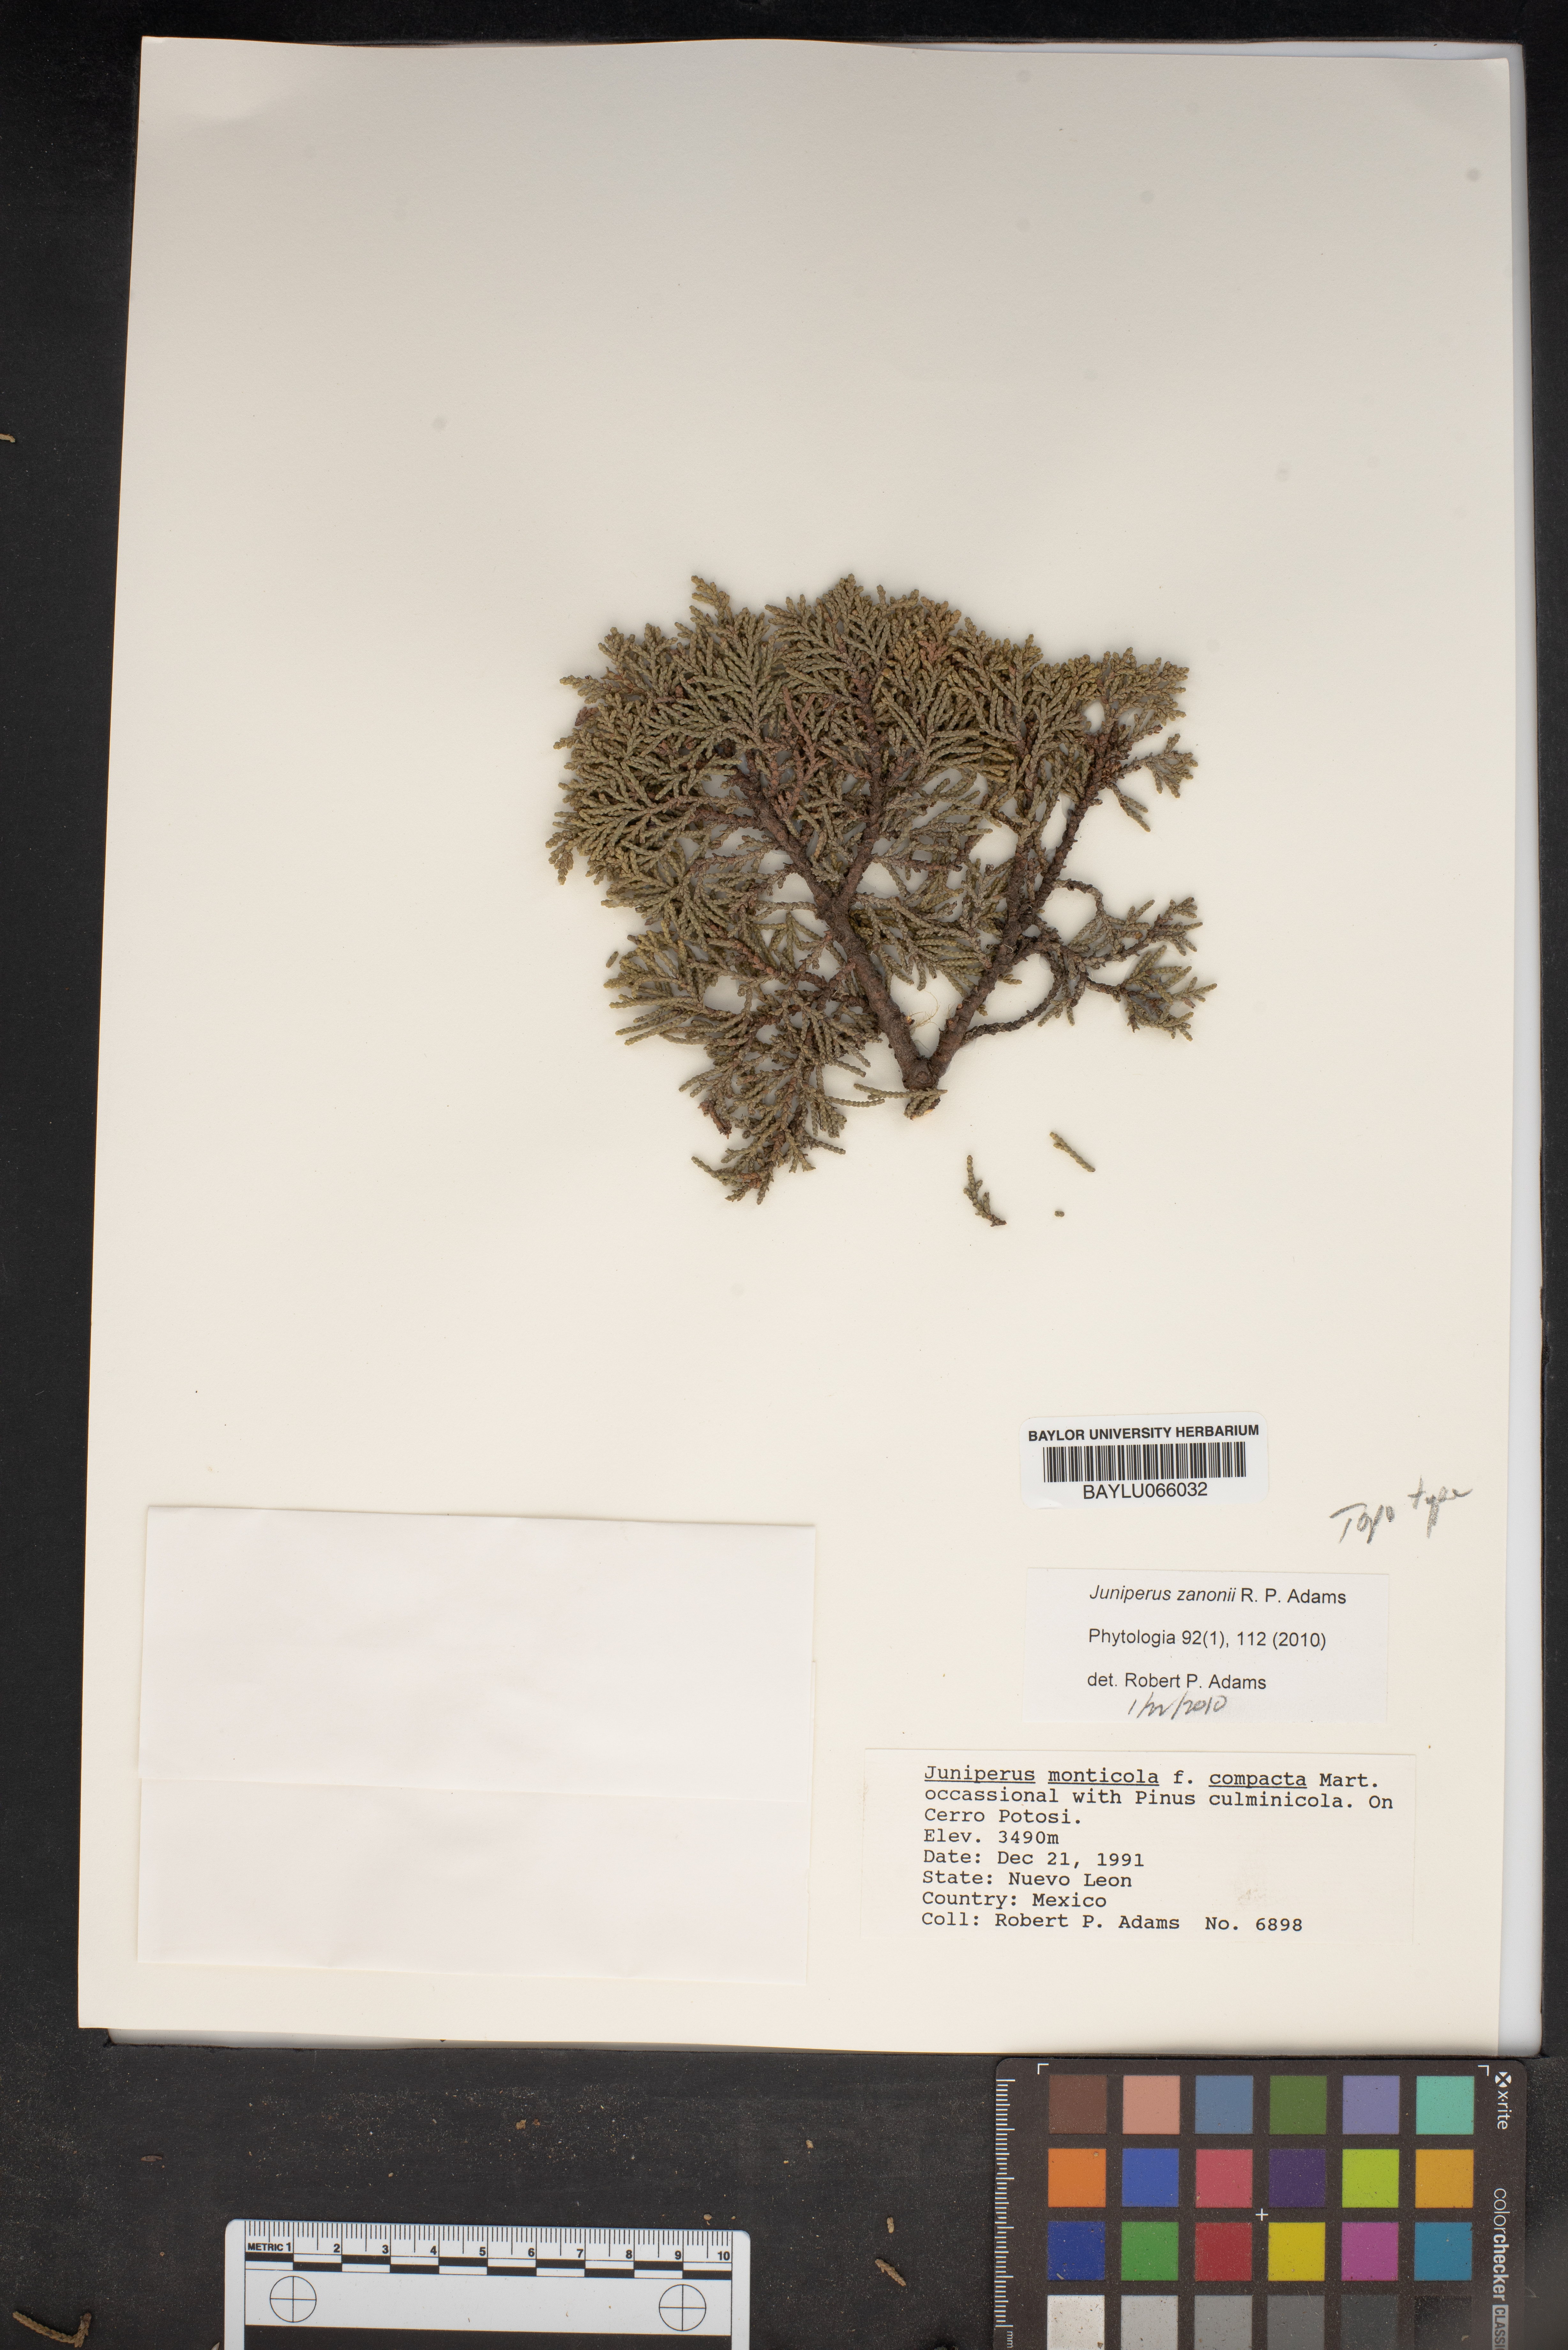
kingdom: Plantae
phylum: Tracheophyta
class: Pinopsida
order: Pinales
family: Cupressaceae
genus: Juniperus
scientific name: Juniperus monticola
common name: Mexican juniper
